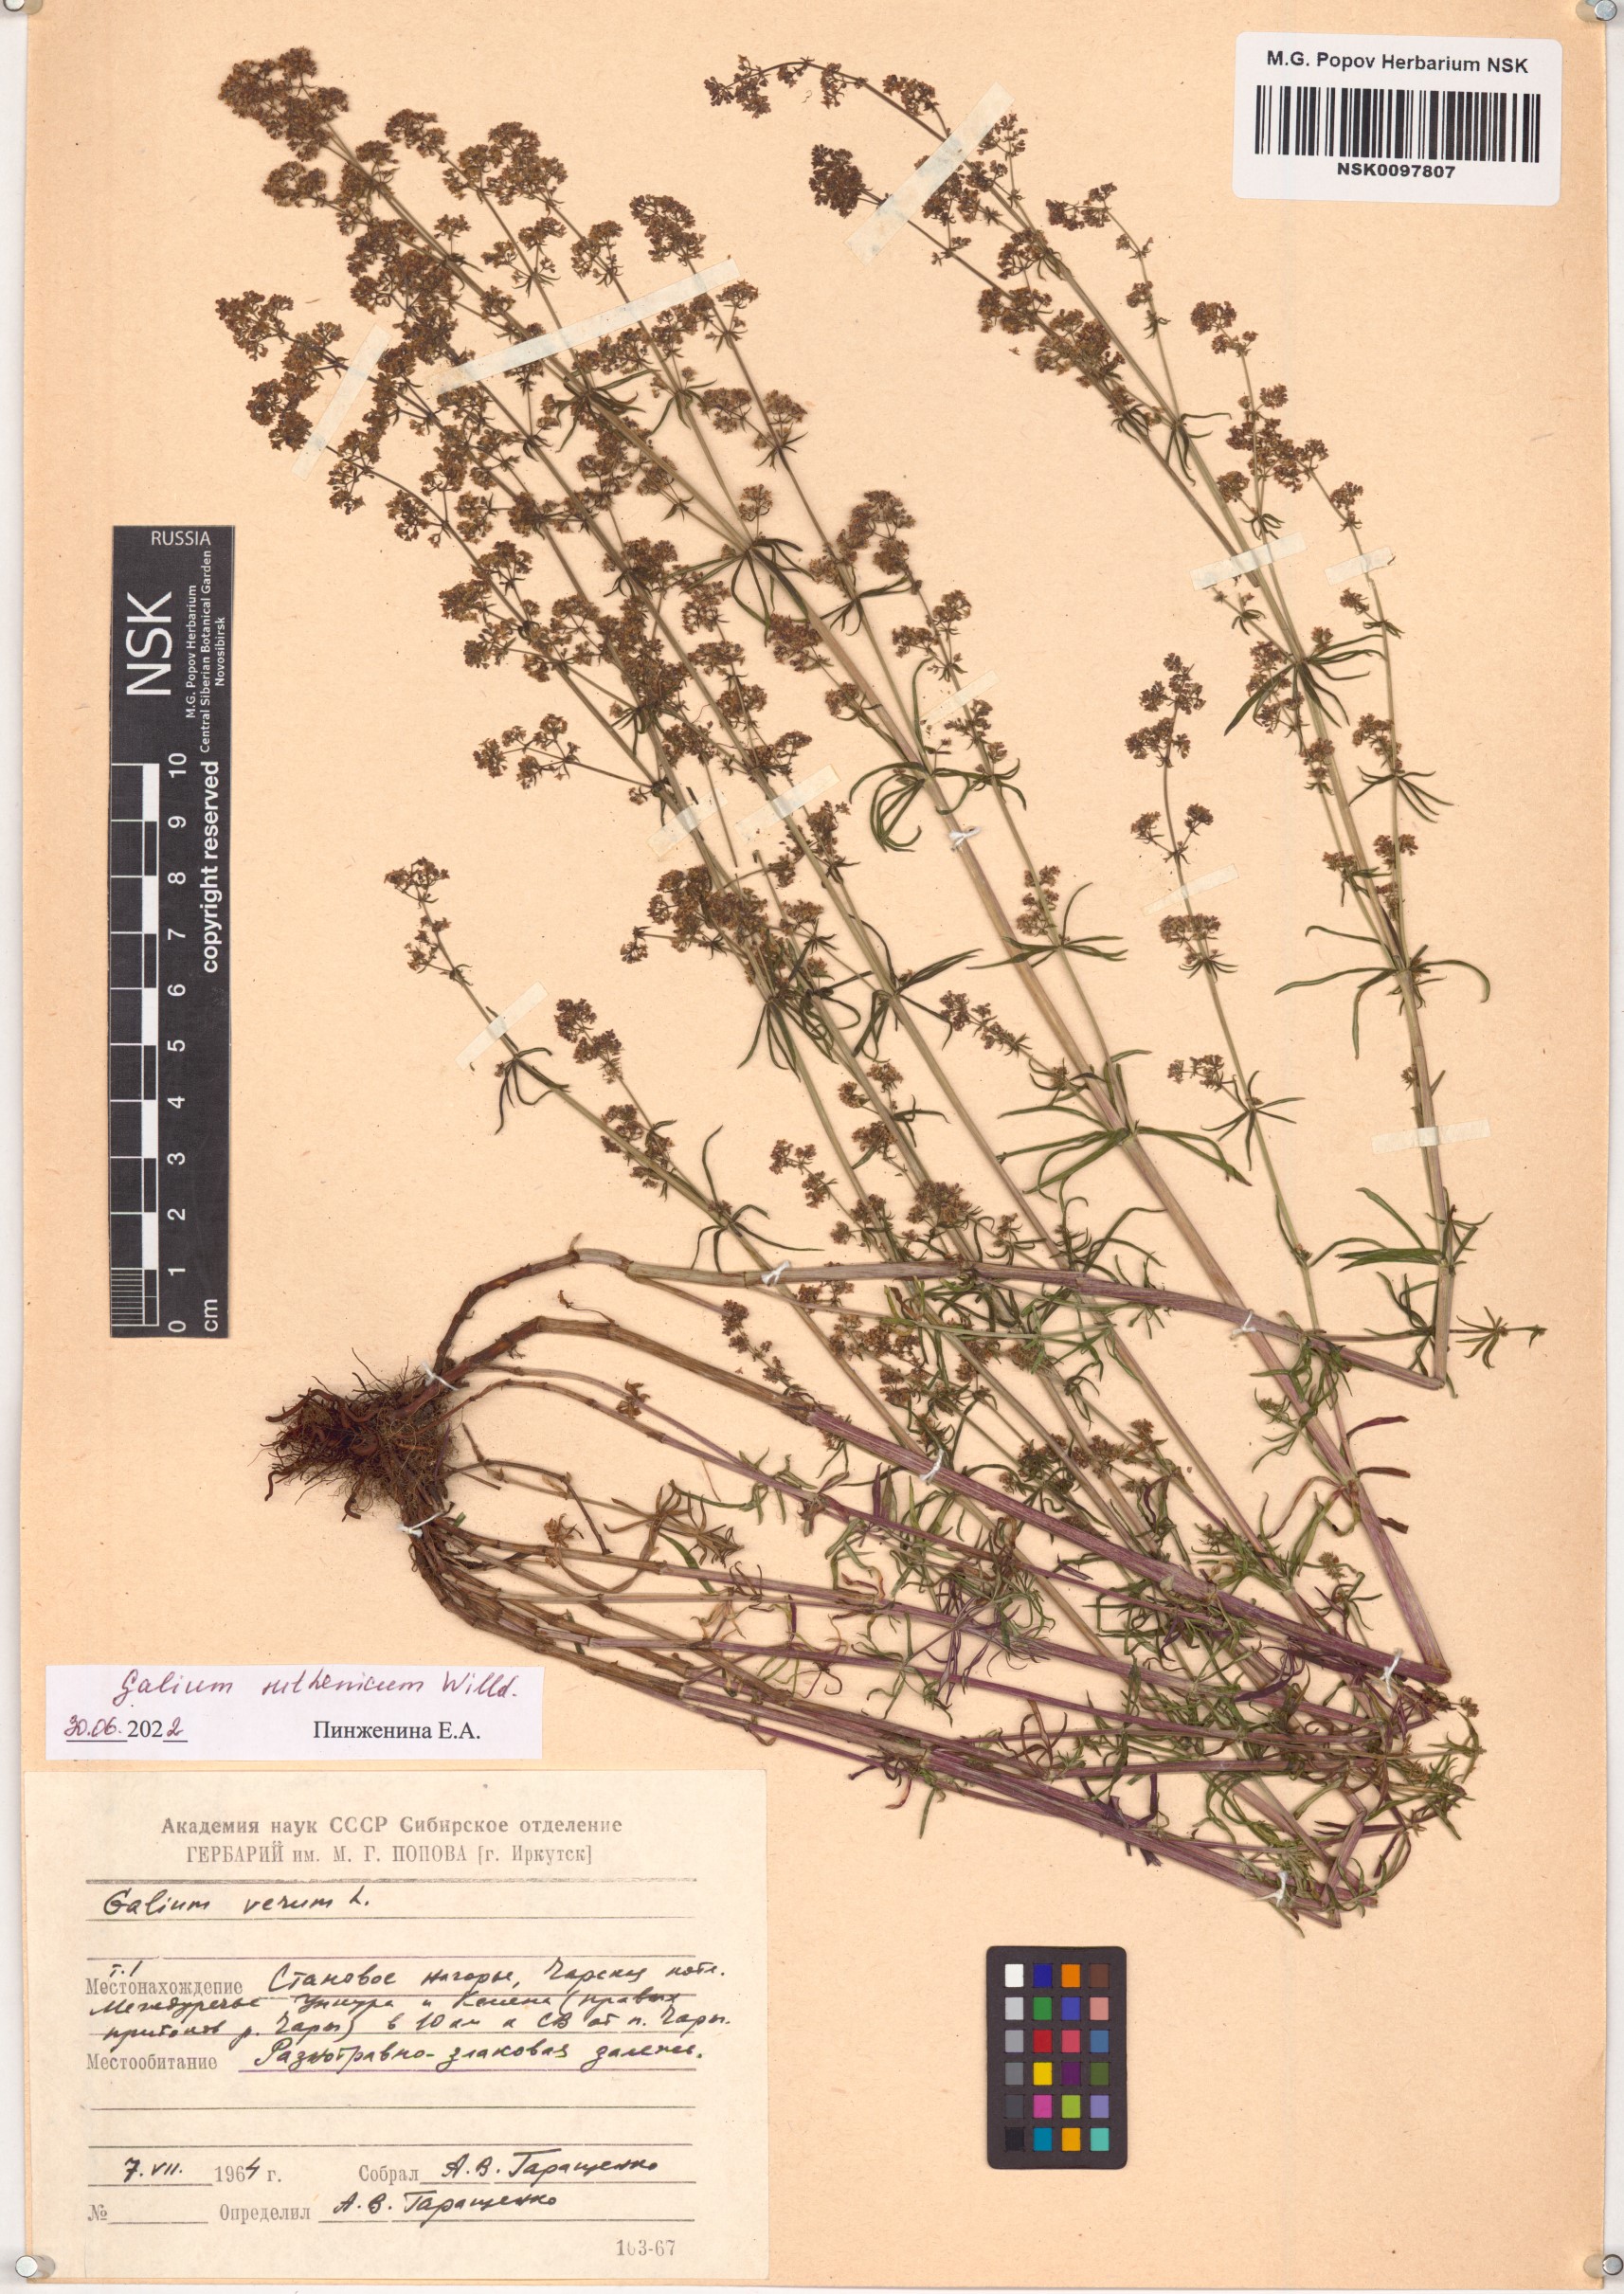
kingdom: Plantae
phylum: Tracheophyta
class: Magnoliopsida
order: Gentianales
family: Rubiaceae
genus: Galium
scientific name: Galium verum
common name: Lady's bedstraw
